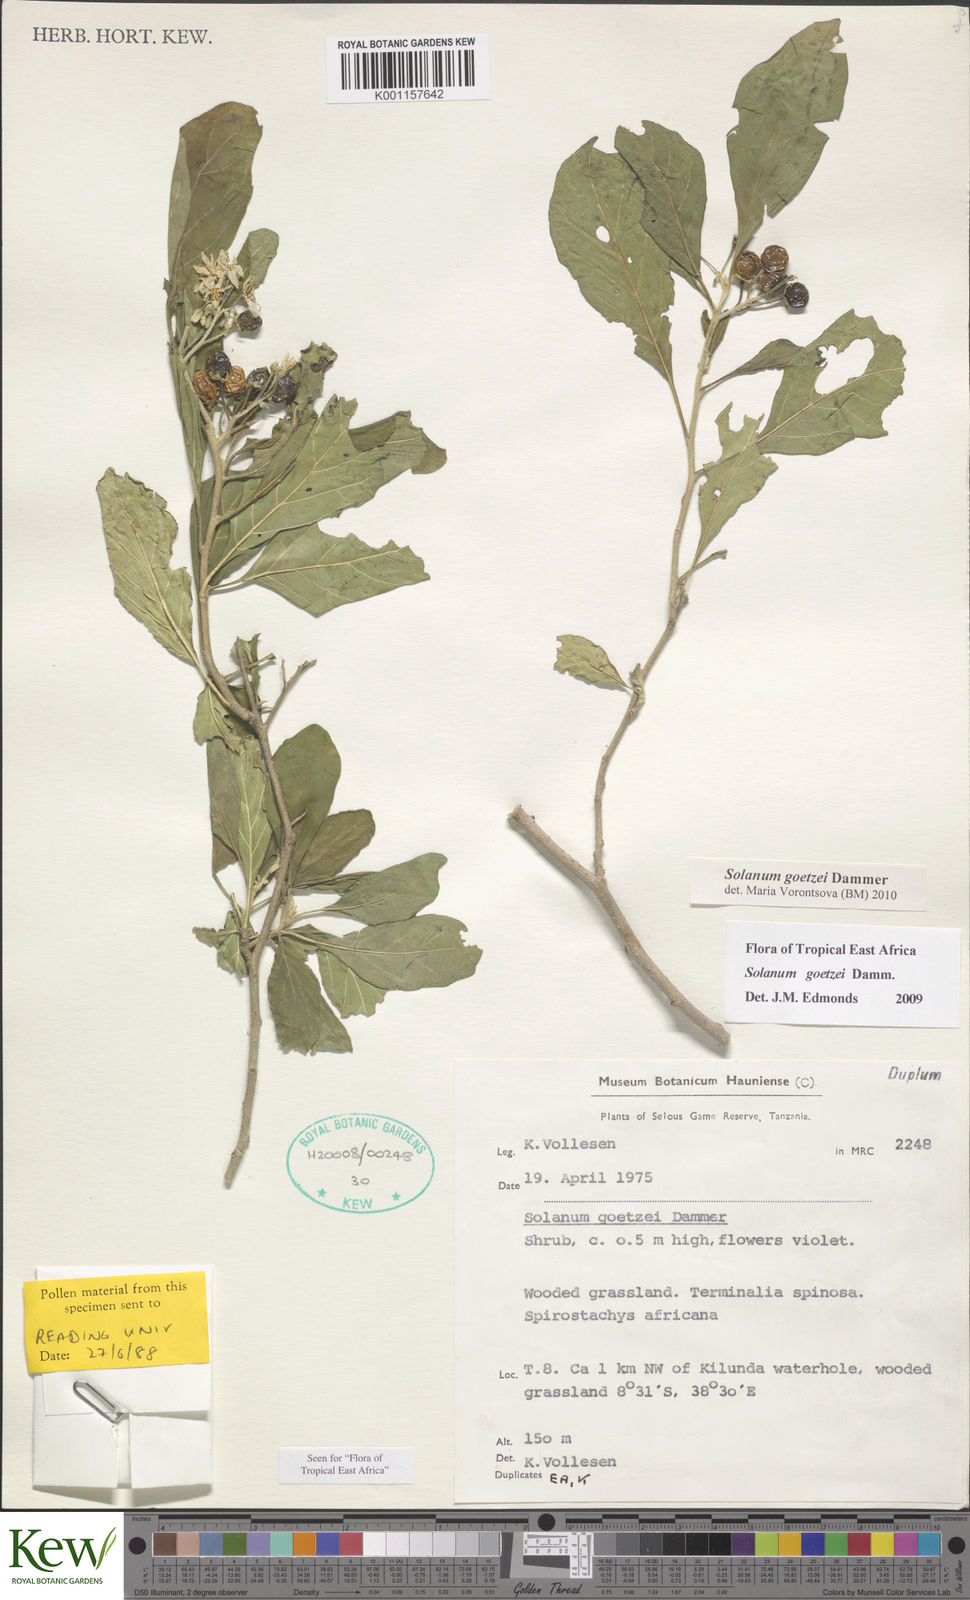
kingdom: Plantae
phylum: Tracheophyta
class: Magnoliopsida
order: Solanales
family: Solanaceae
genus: Solanum
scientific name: Solanum goetzei
